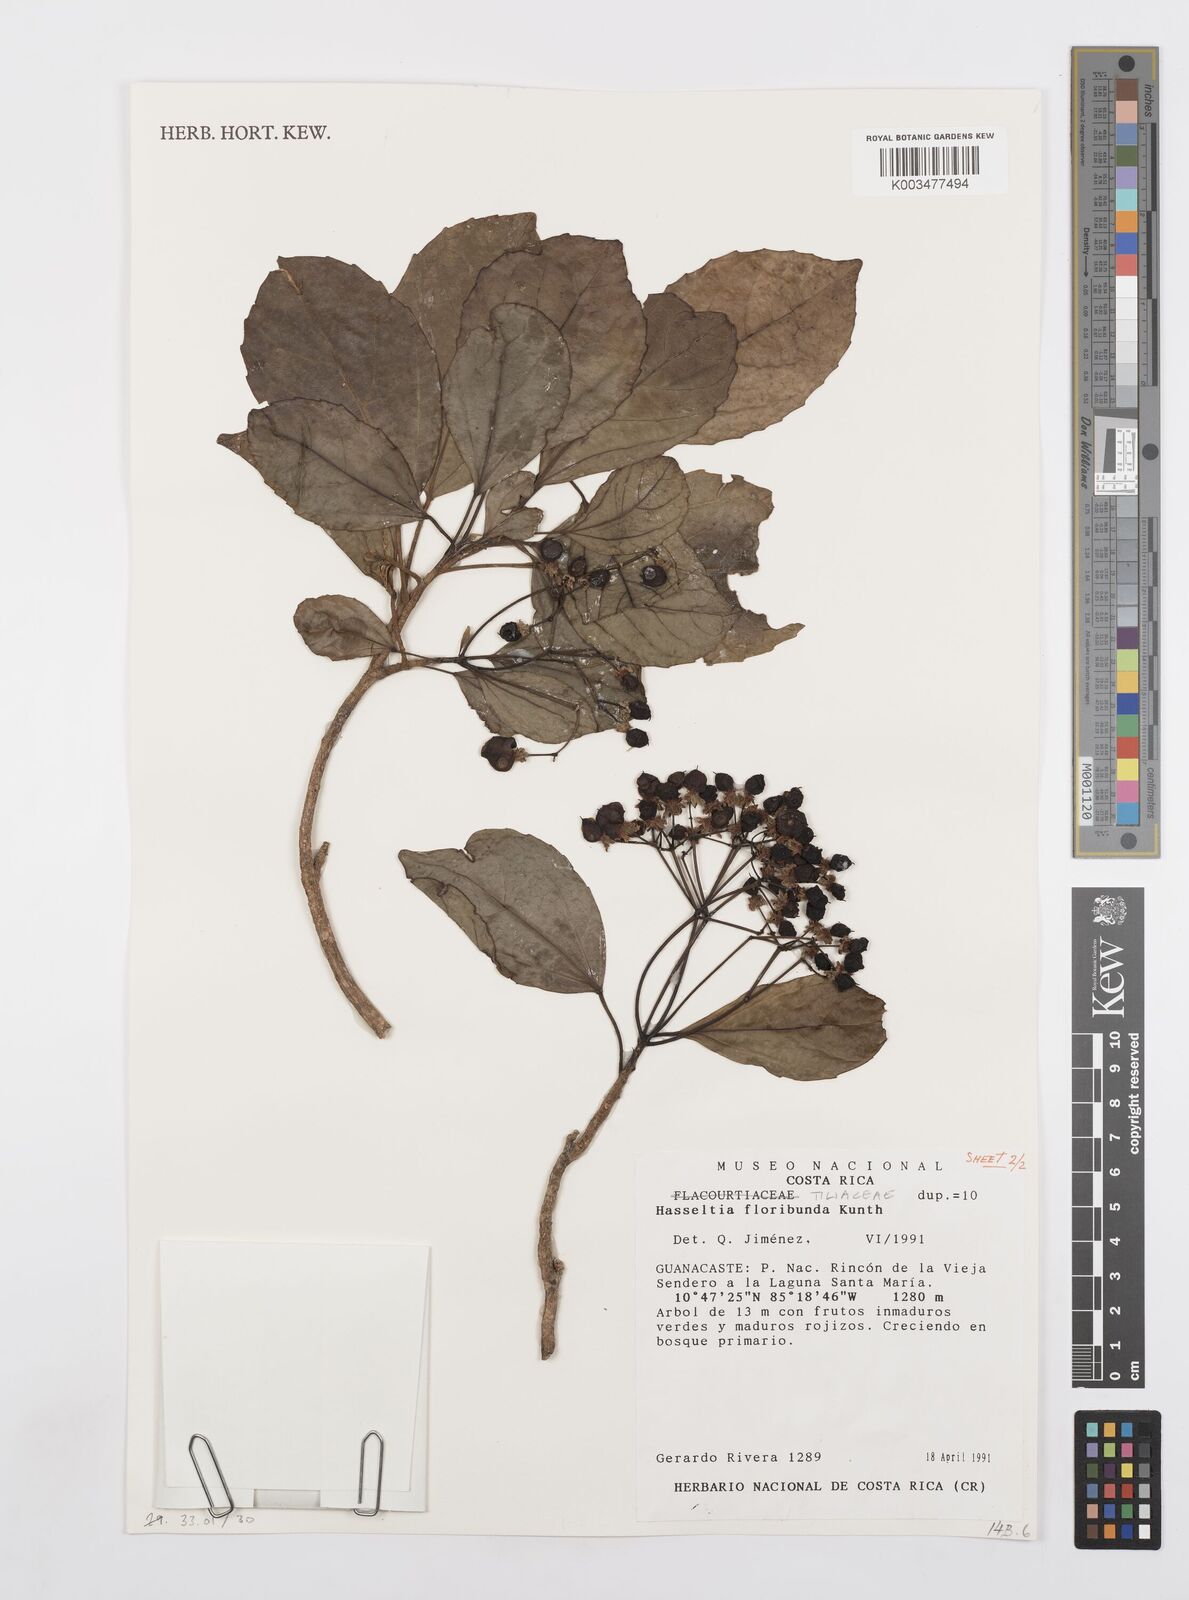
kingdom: Plantae
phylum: Tracheophyta
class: Magnoliopsida
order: Malpighiales
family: Salicaceae
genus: Hasseltia
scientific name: Hasseltia floribunda
